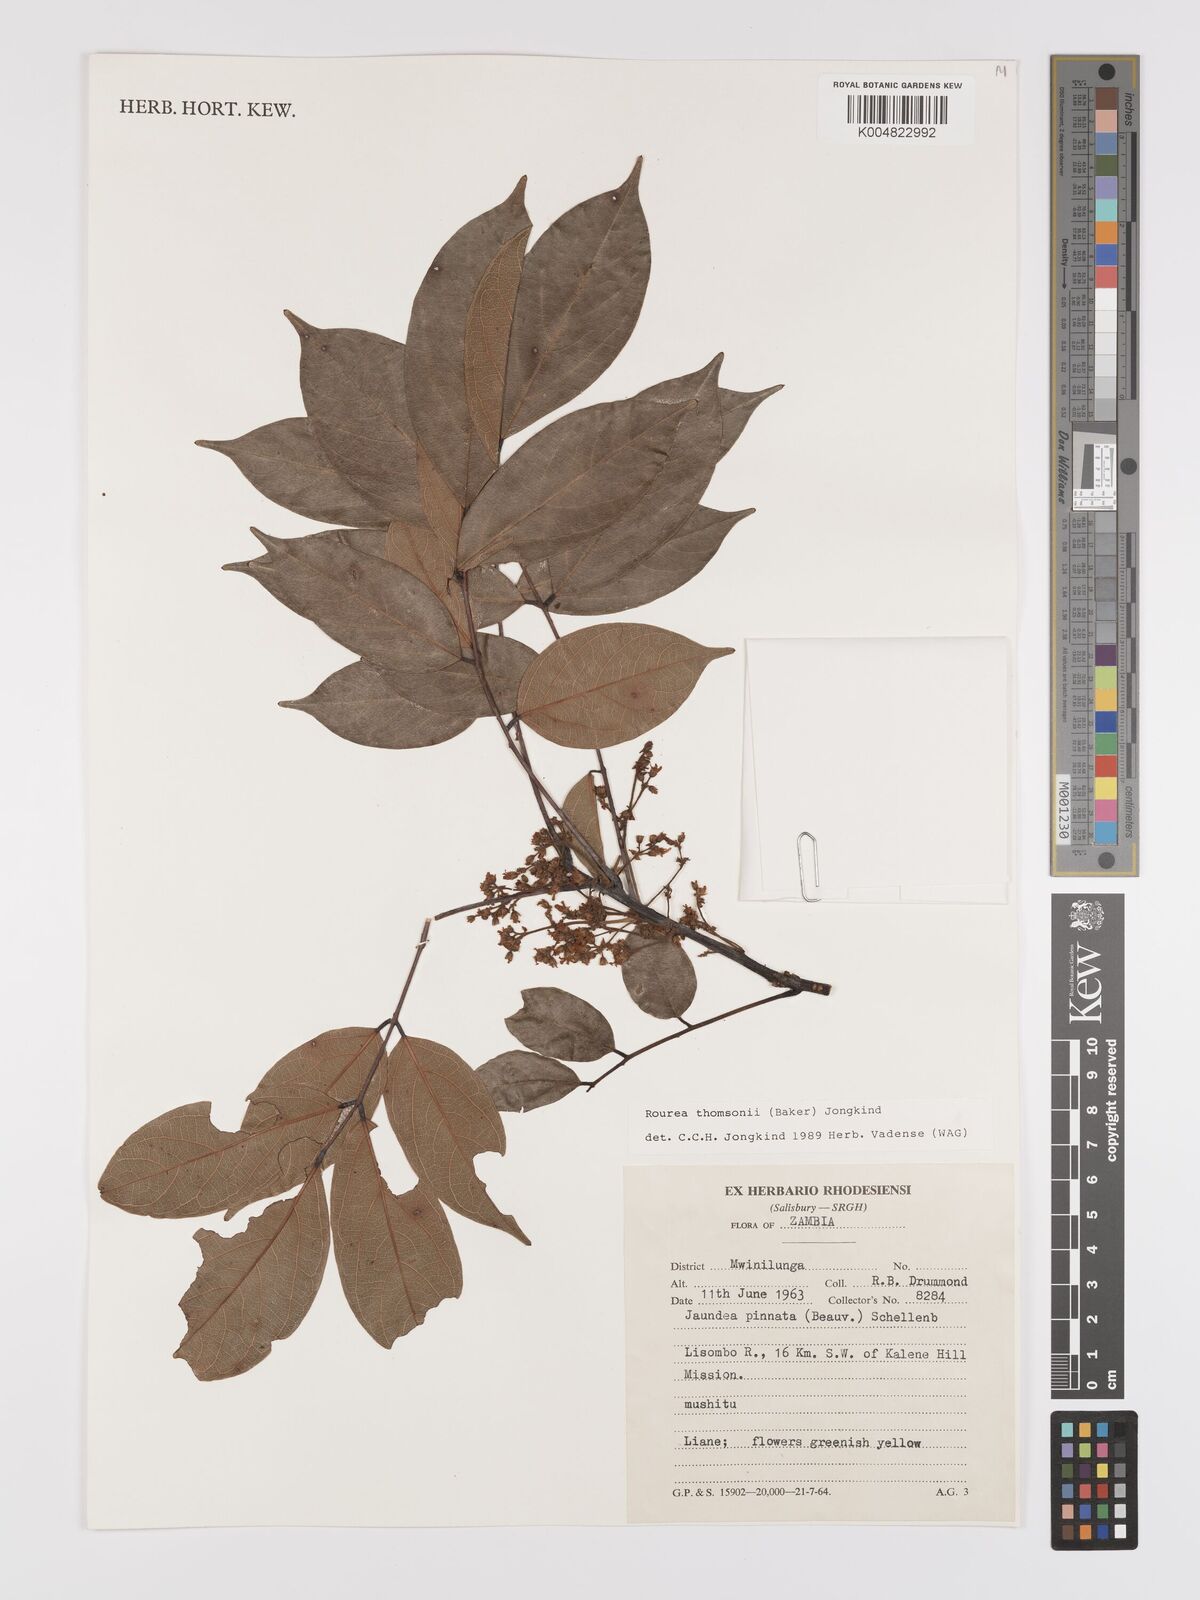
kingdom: Plantae
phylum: Tracheophyta
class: Magnoliopsida
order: Oxalidales
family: Connaraceae
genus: Rourea
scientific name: Rourea thomsonii
